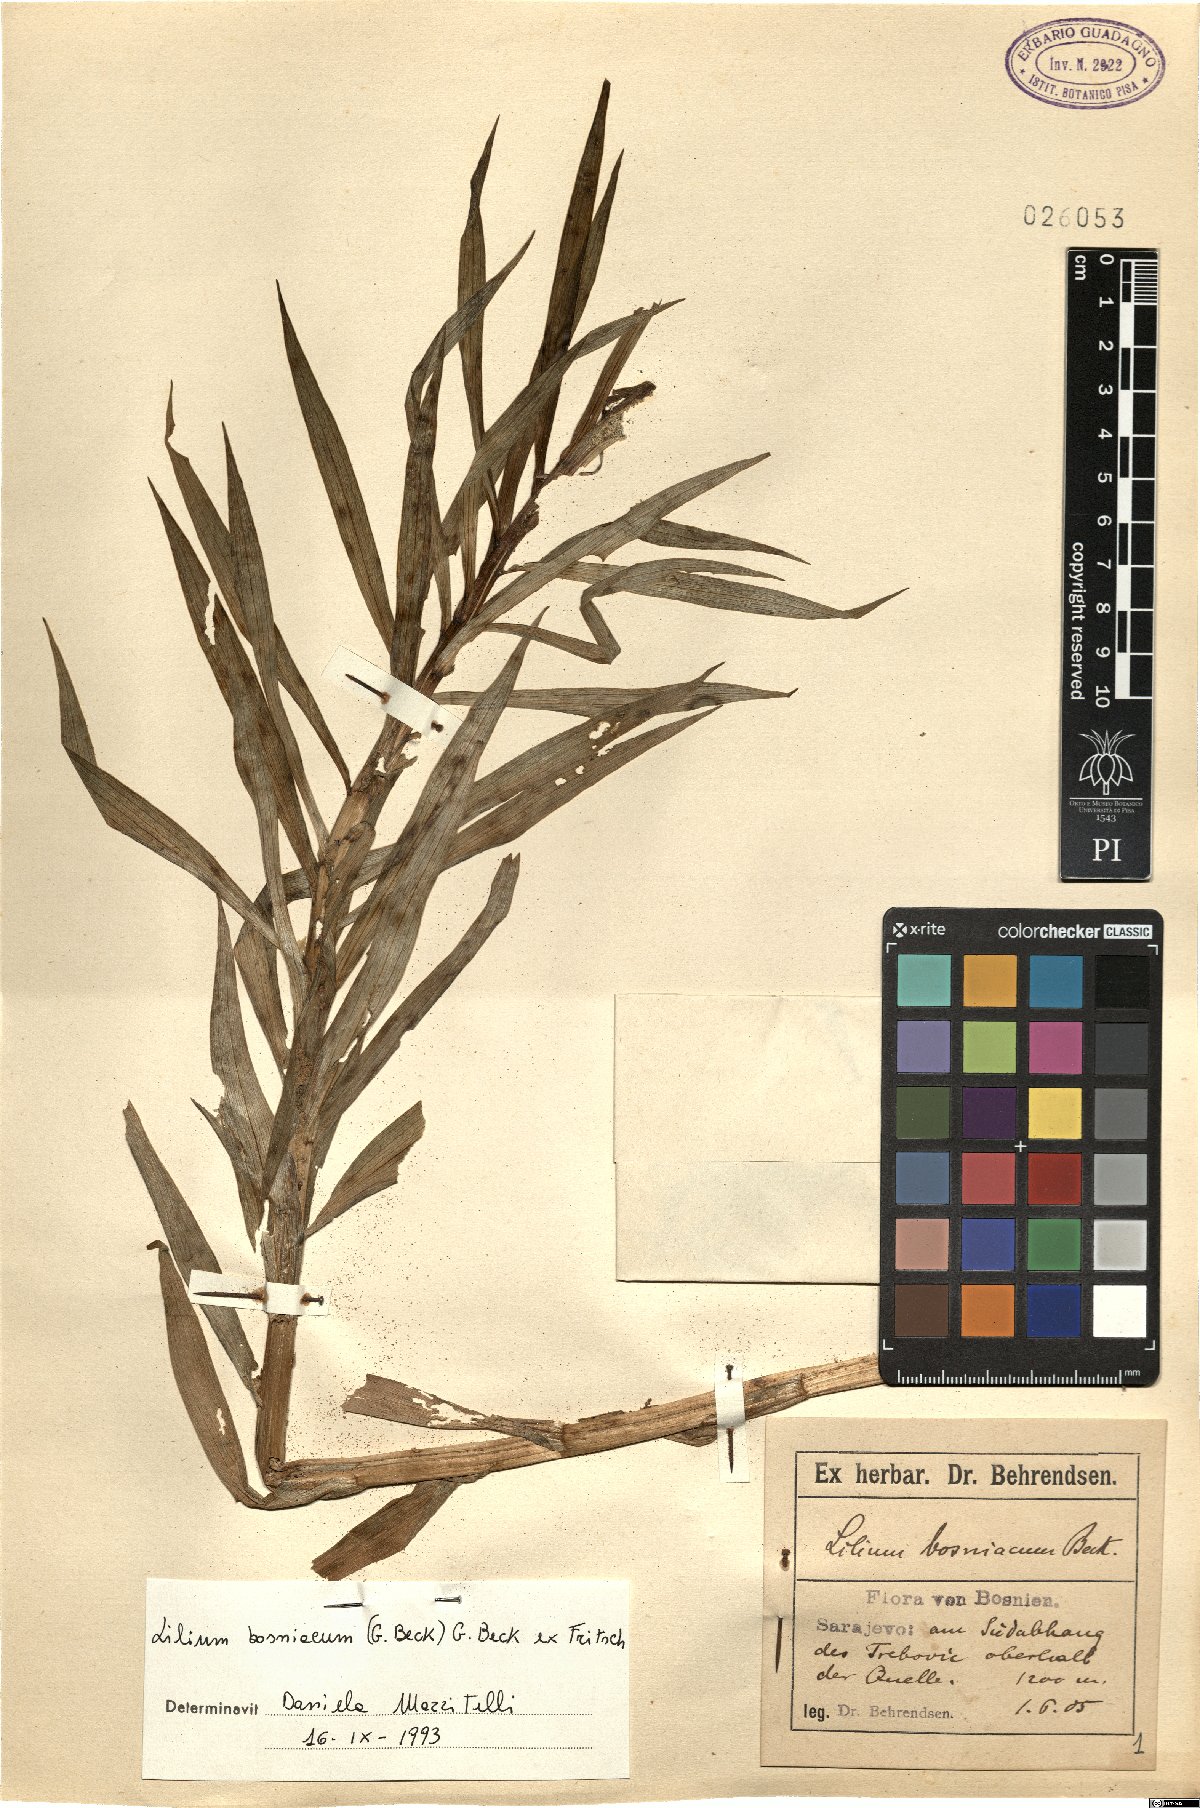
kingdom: Plantae
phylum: Tracheophyta
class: Liliopsida
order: Liliales
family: Liliaceae
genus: Lilium
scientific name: Lilium bosniacum
